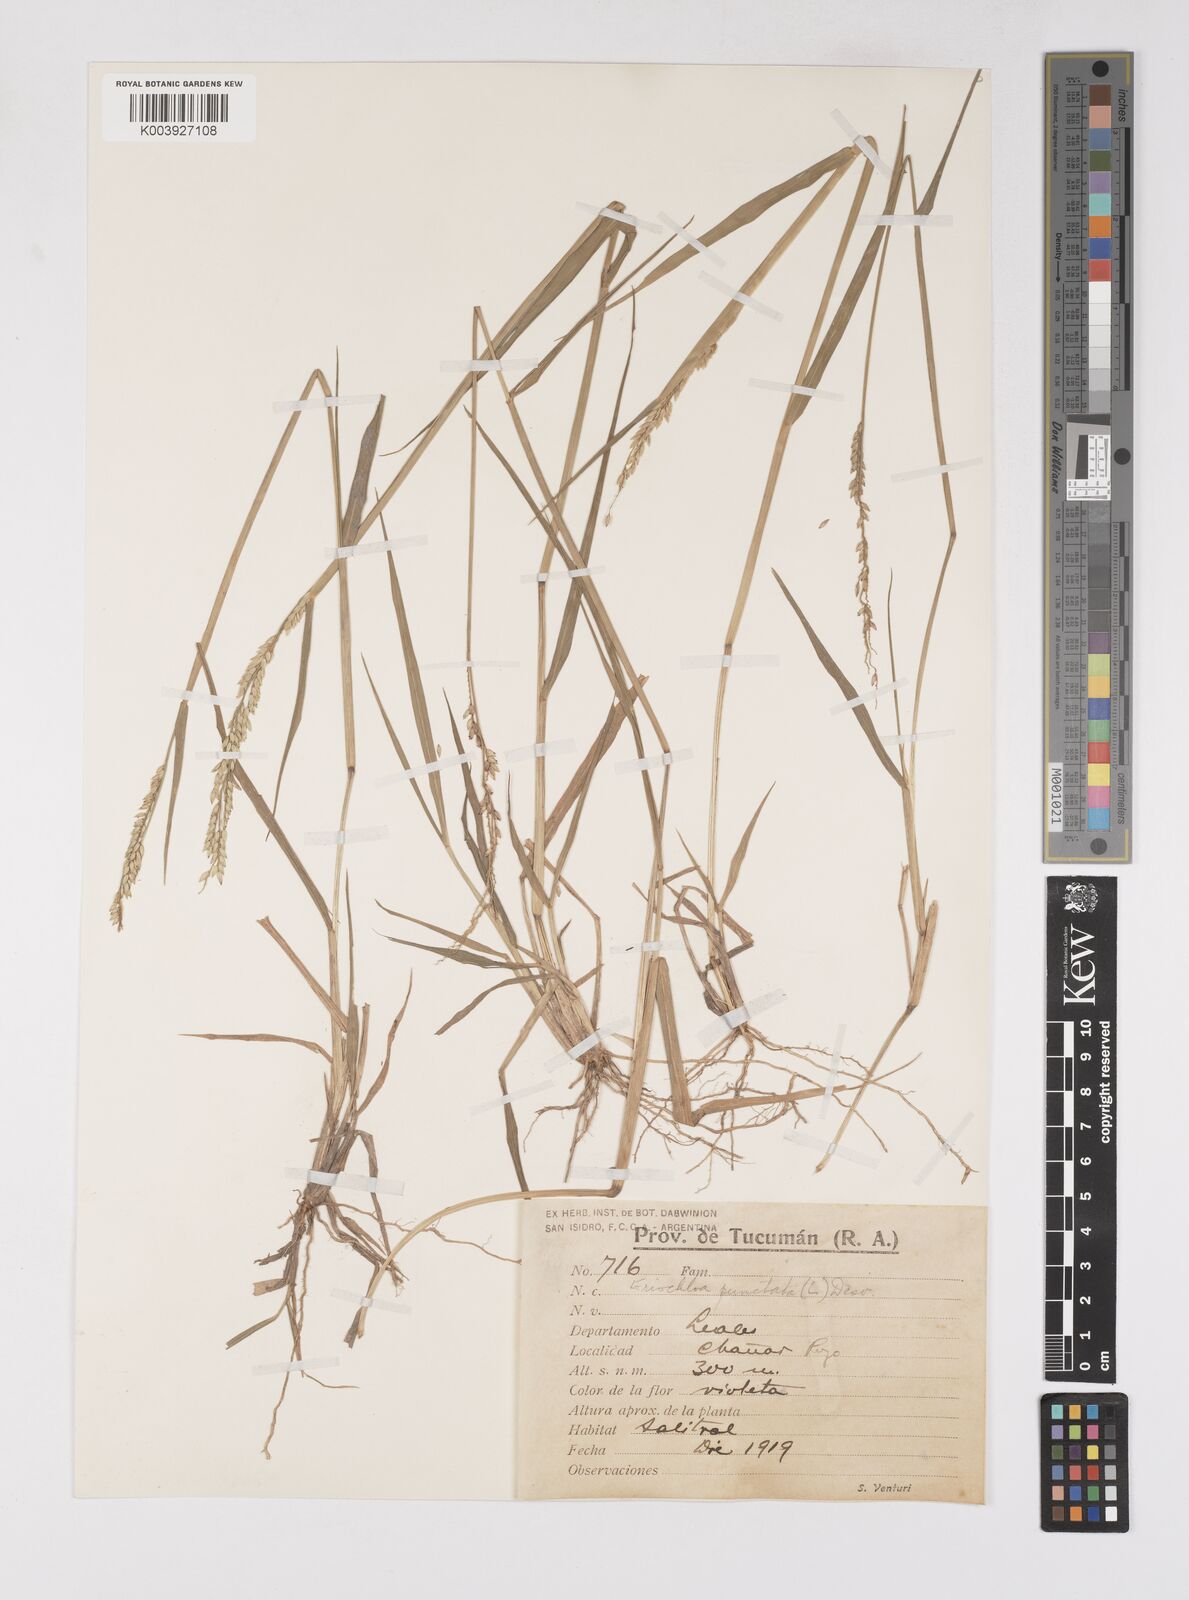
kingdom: Plantae
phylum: Tracheophyta
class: Liliopsida
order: Poales
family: Poaceae
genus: Eriochloa
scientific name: Eriochloa punctata
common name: Louisiana cupgrass
